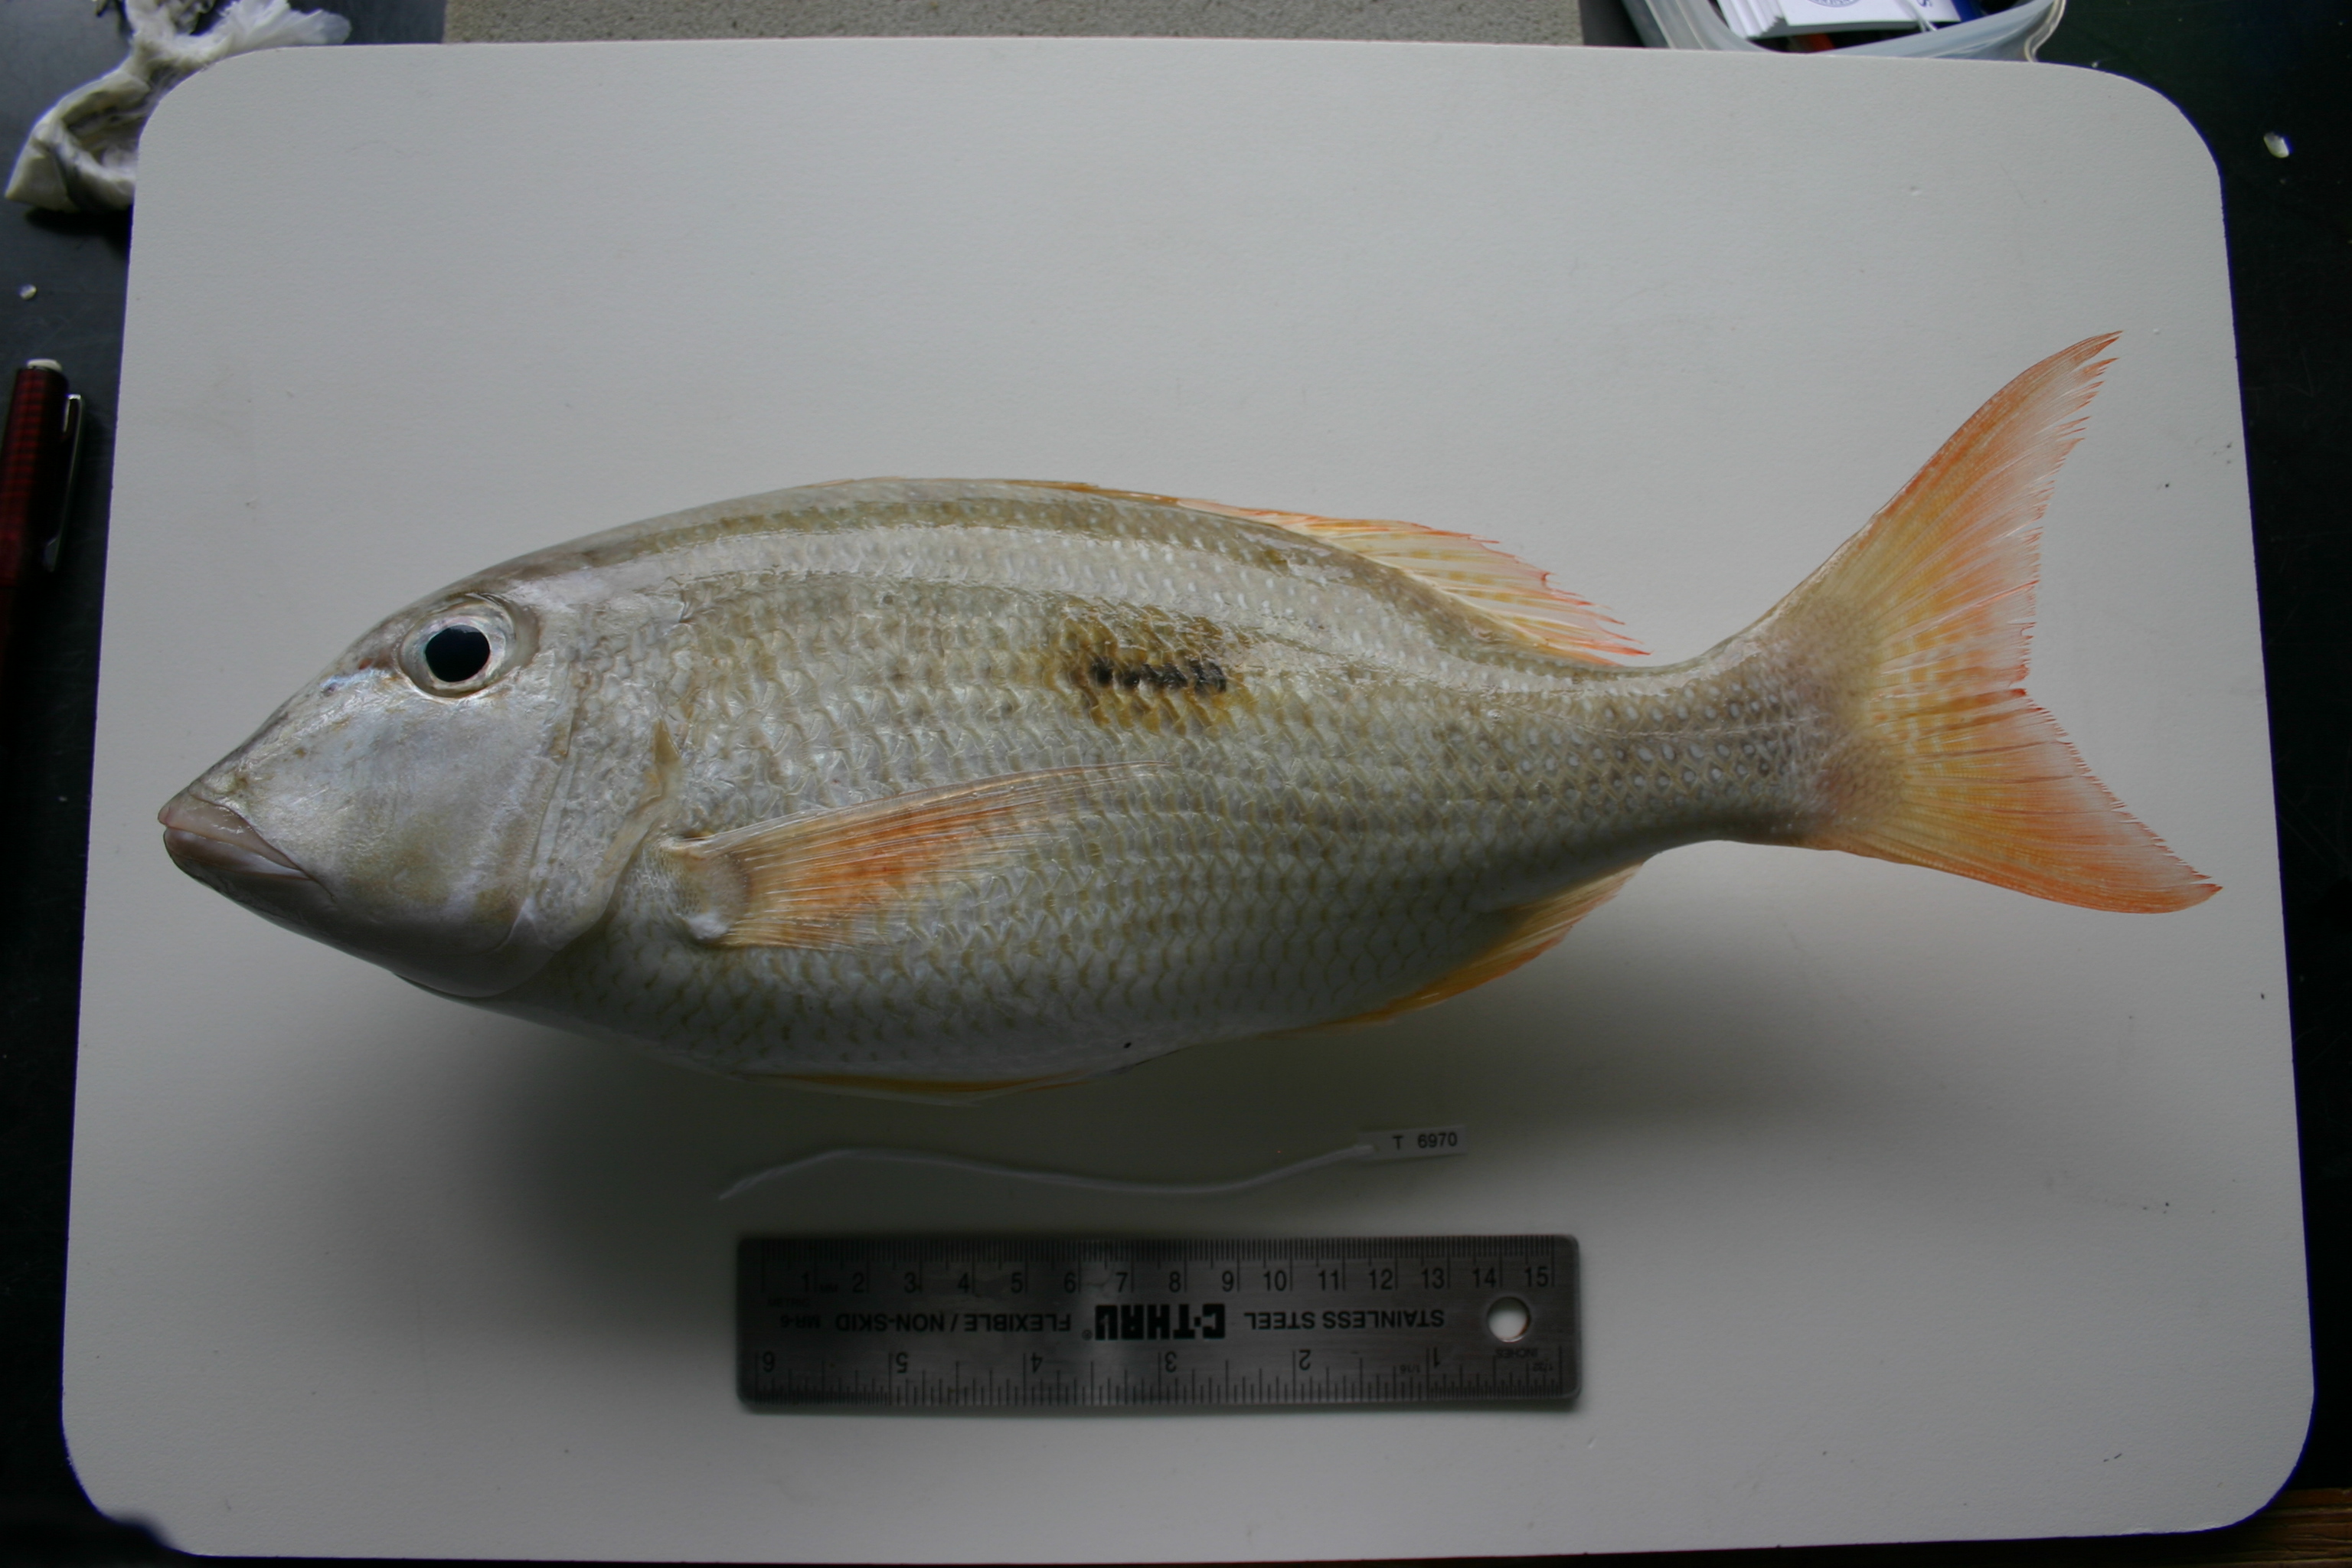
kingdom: Animalia
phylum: Chordata
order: Perciformes
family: Lethrinidae
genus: Lethrinus
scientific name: Lethrinus harak
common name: Blackspot emperor
